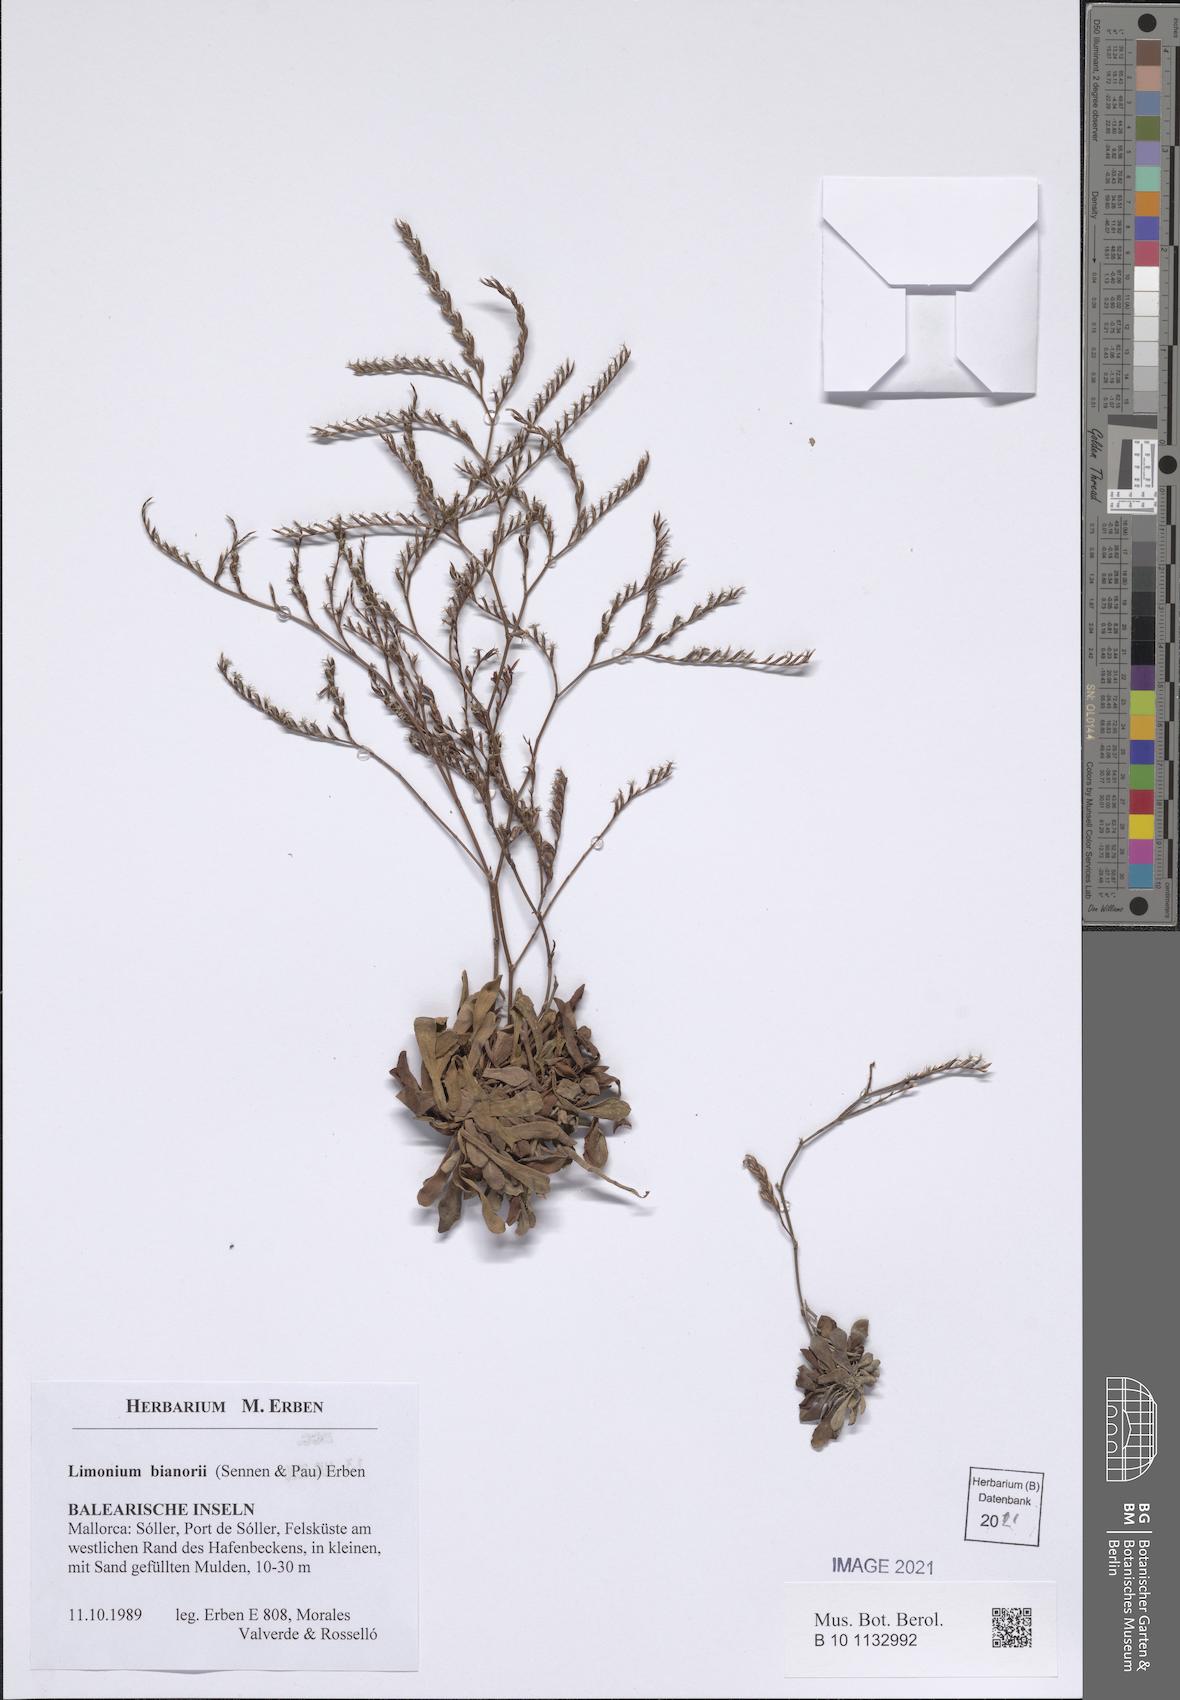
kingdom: Plantae
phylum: Tracheophyta
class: Magnoliopsida
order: Caryophyllales
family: Plumbaginaceae
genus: Limonium
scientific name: Limonium bianorii
